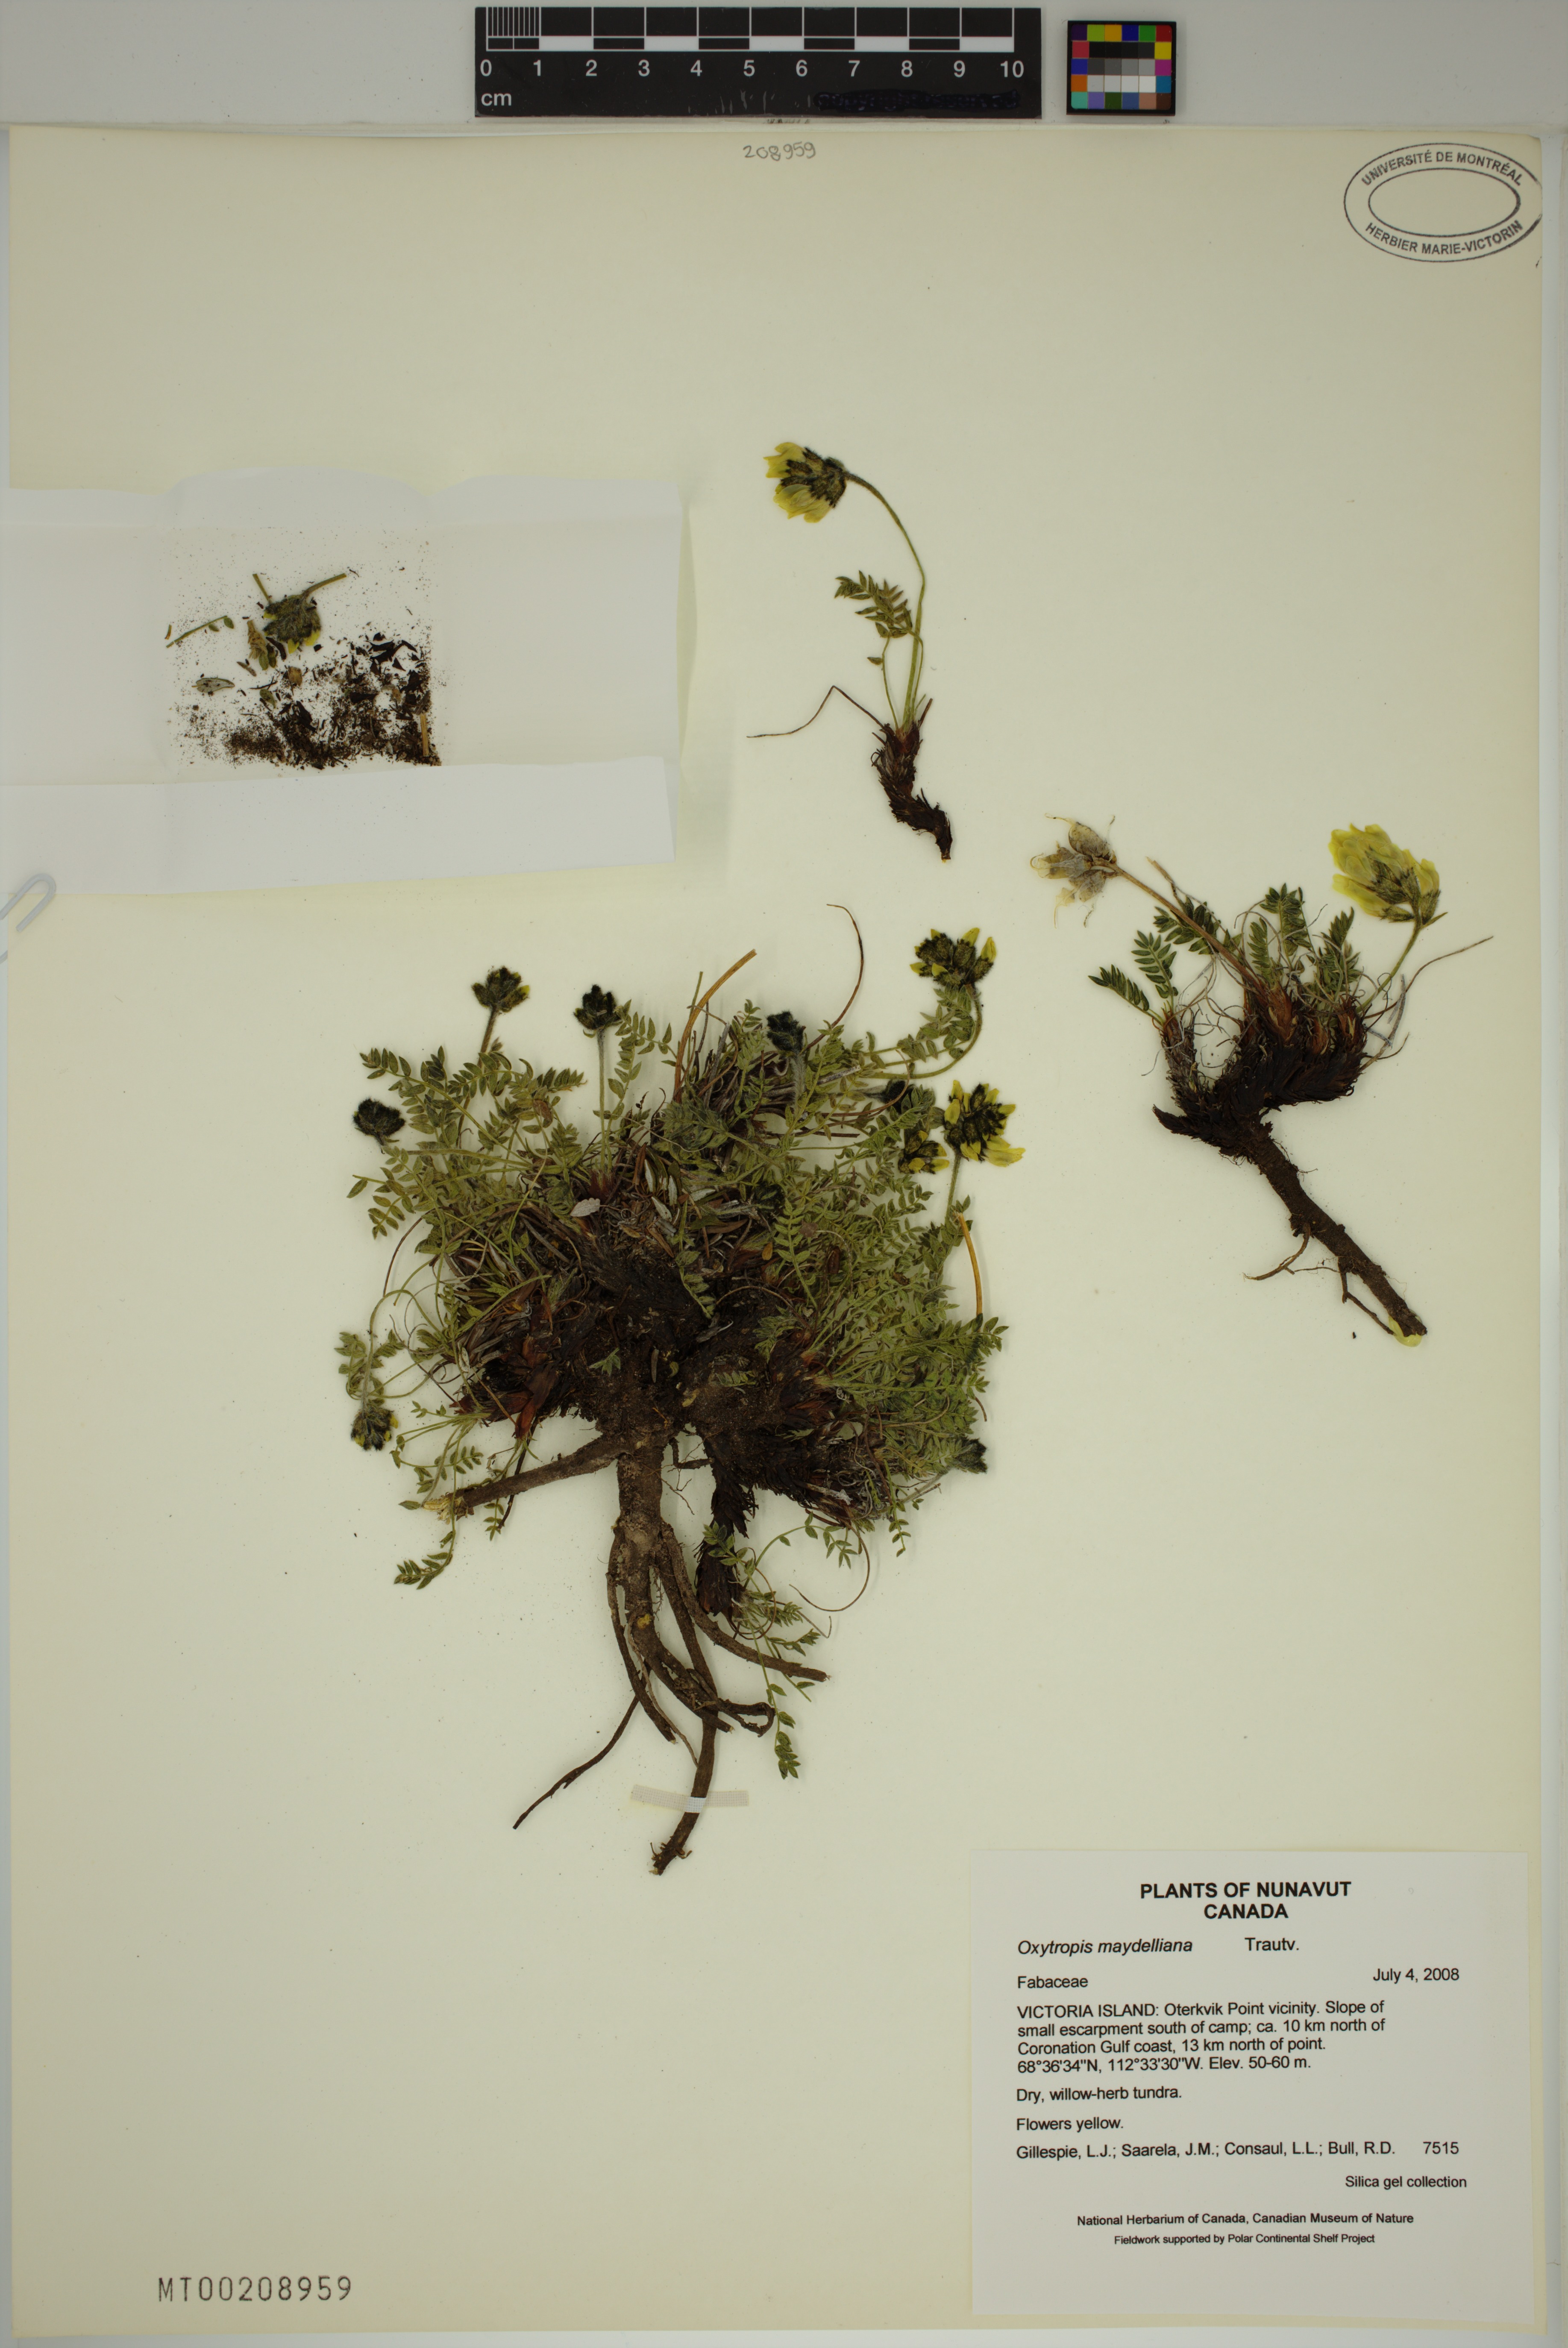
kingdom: Plantae
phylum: Tracheophyta
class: Magnoliopsida
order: Fabales
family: Fabaceae
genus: Oxytropis
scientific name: Oxytropis maydelliana
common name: Maydell's locoweed
